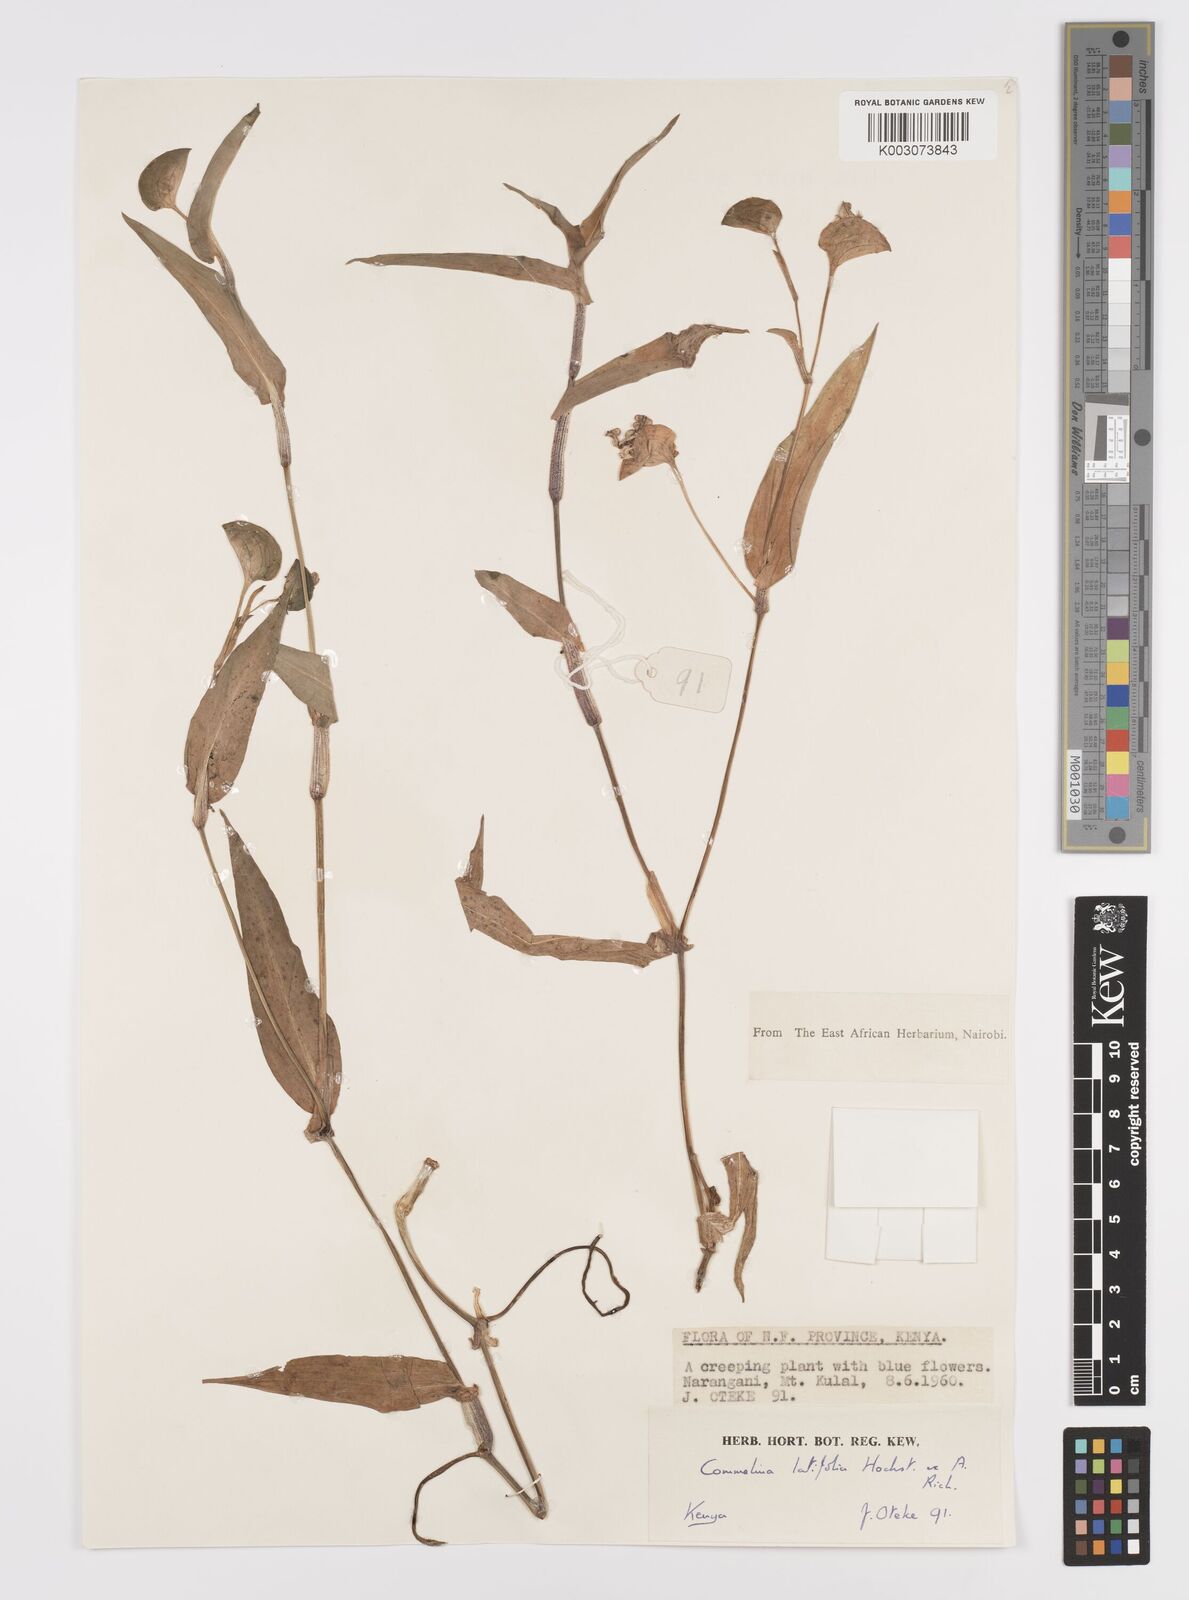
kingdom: Plantae
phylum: Tracheophyta
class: Liliopsida
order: Commelinales
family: Commelinaceae
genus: Commelina
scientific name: Commelina latifolia
